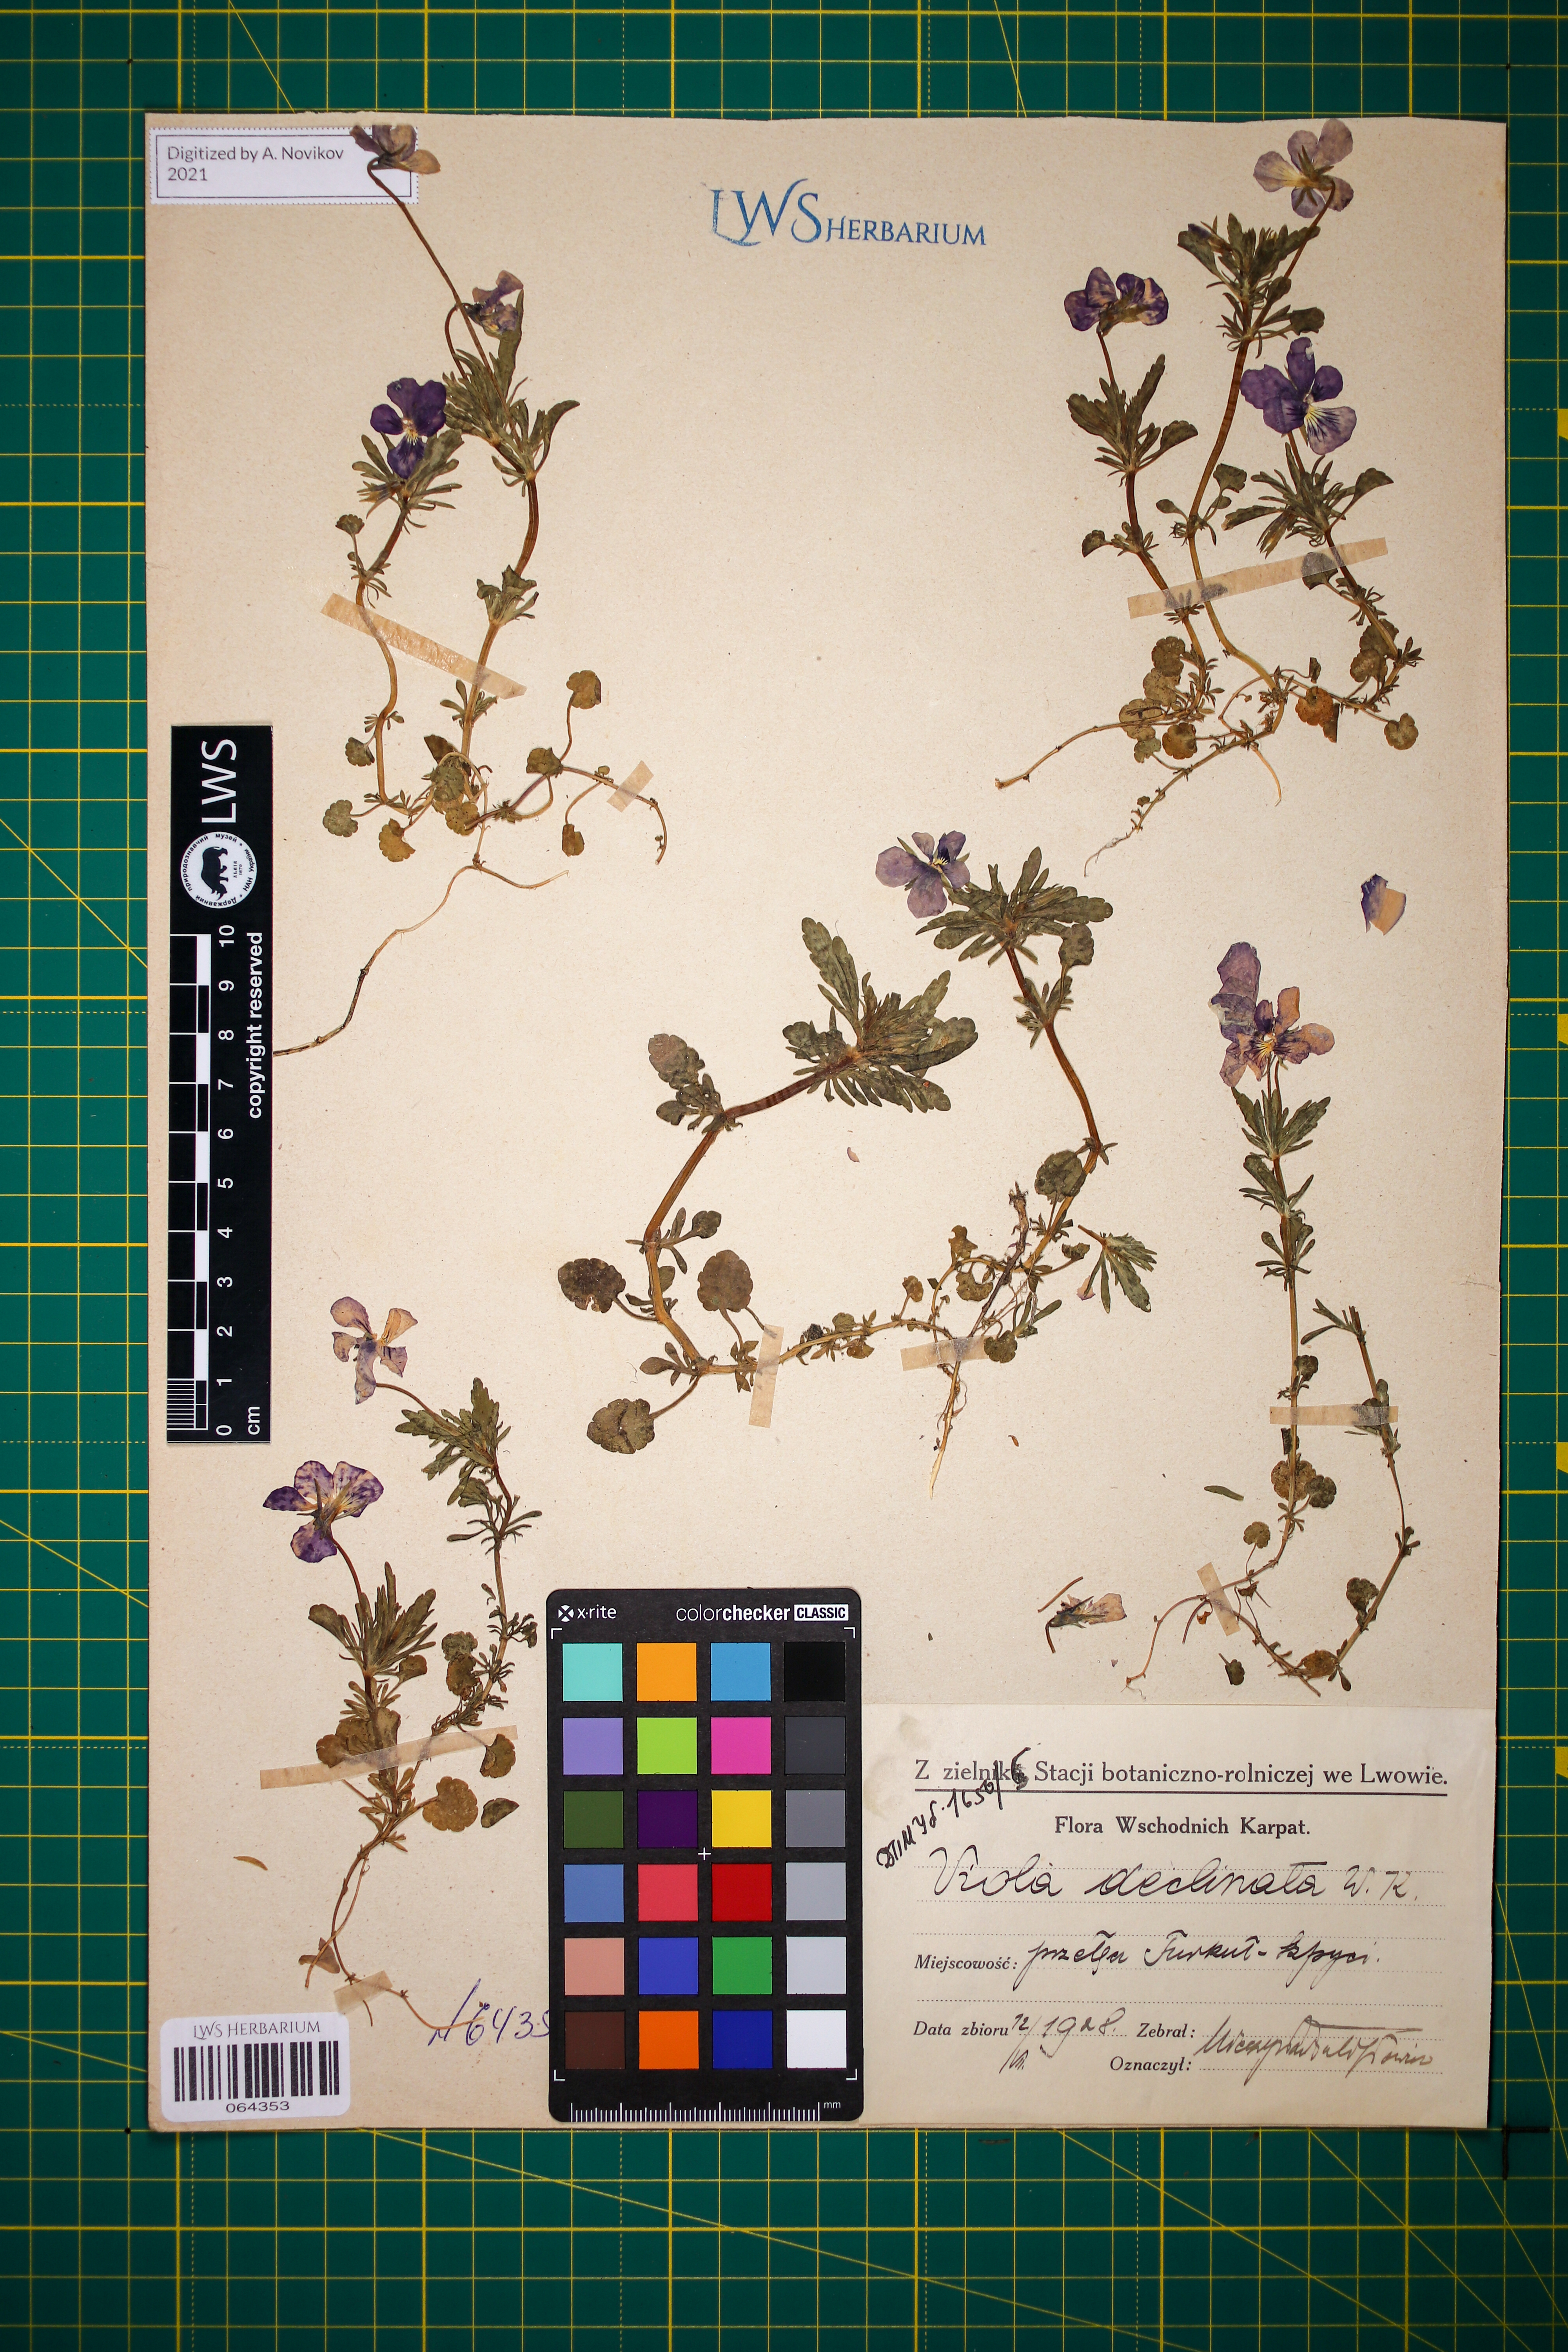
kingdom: Plantae
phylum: Tracheophyta
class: Magnoliopsida
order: Malpighiales
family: Violaceae
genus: Viola
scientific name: Viola declinata
